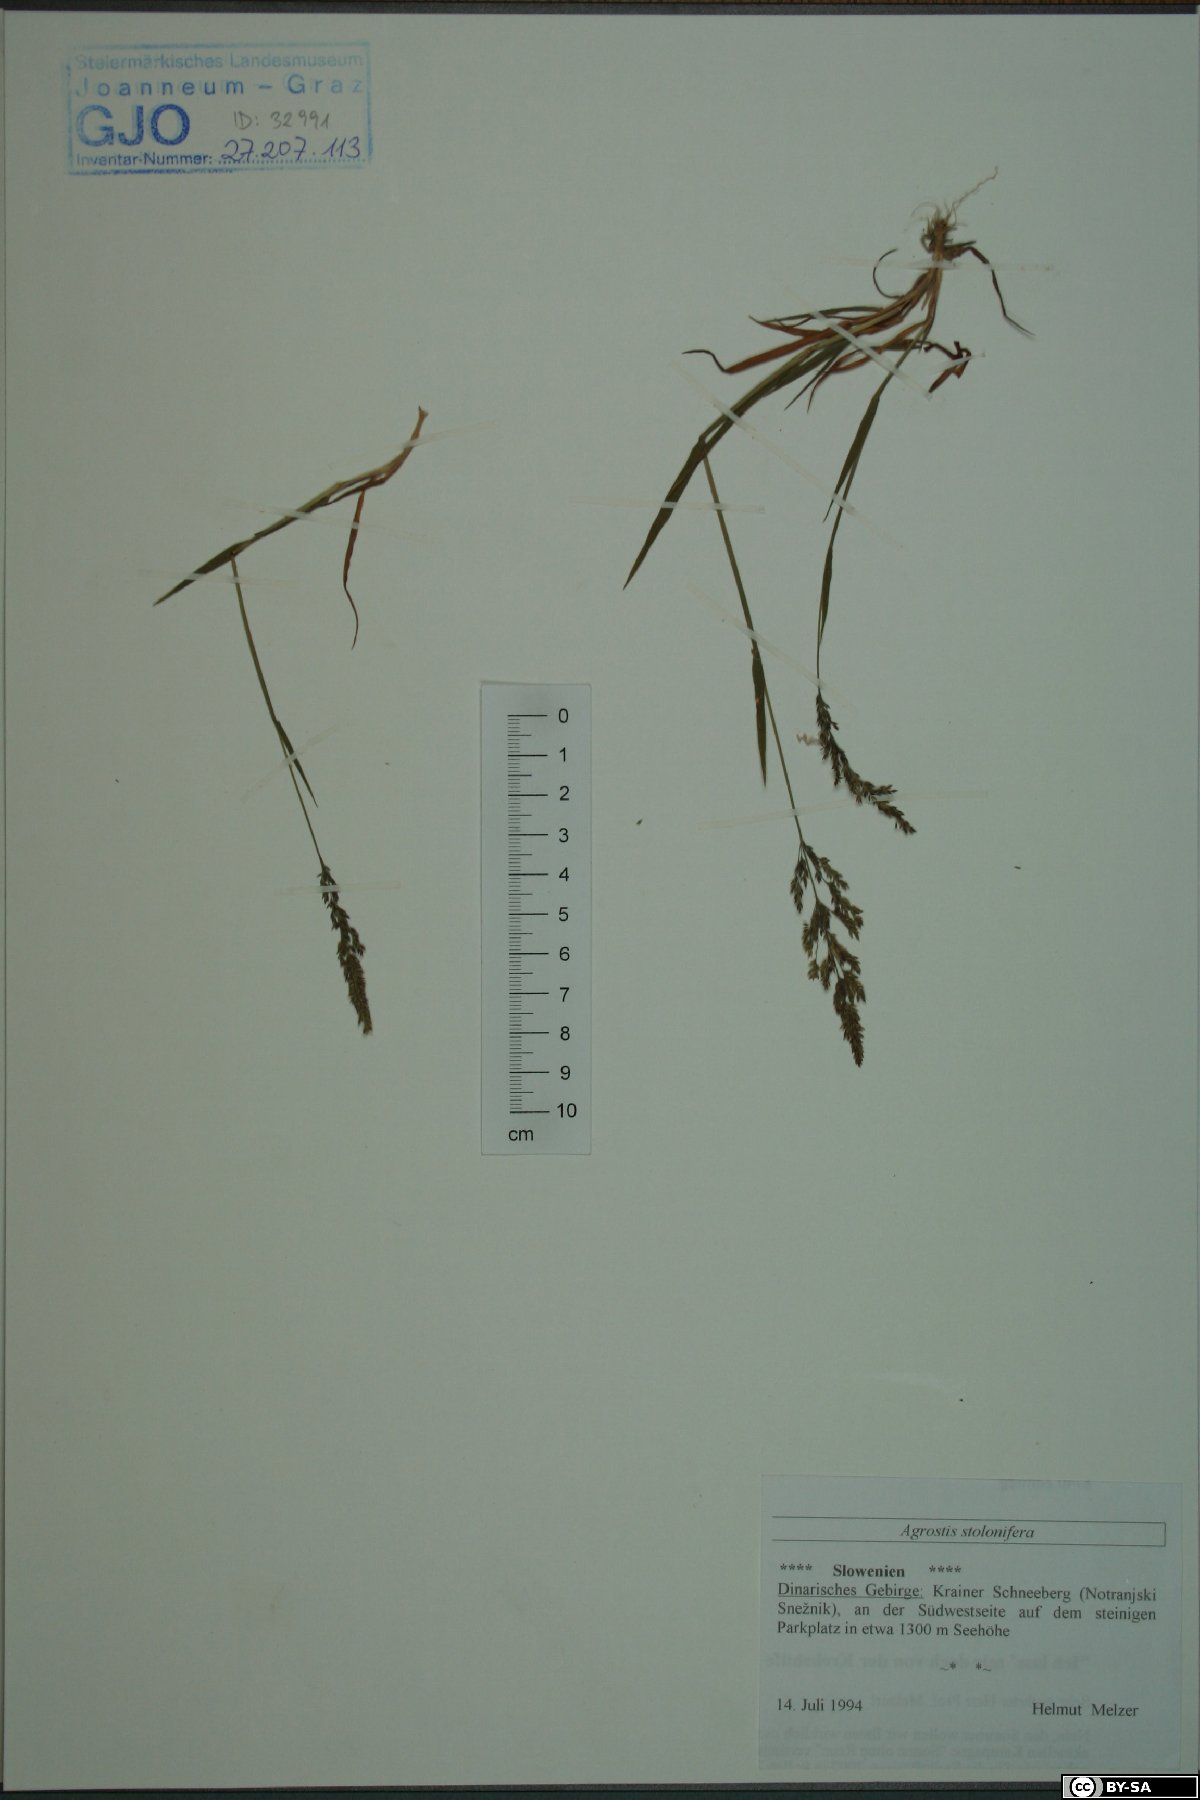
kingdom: Plantae
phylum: Tracheophyta
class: Liliopsida
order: Poales
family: Poaceae
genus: Agrostis
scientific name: Agrostis stolonifera
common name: Creeping bentgrass
